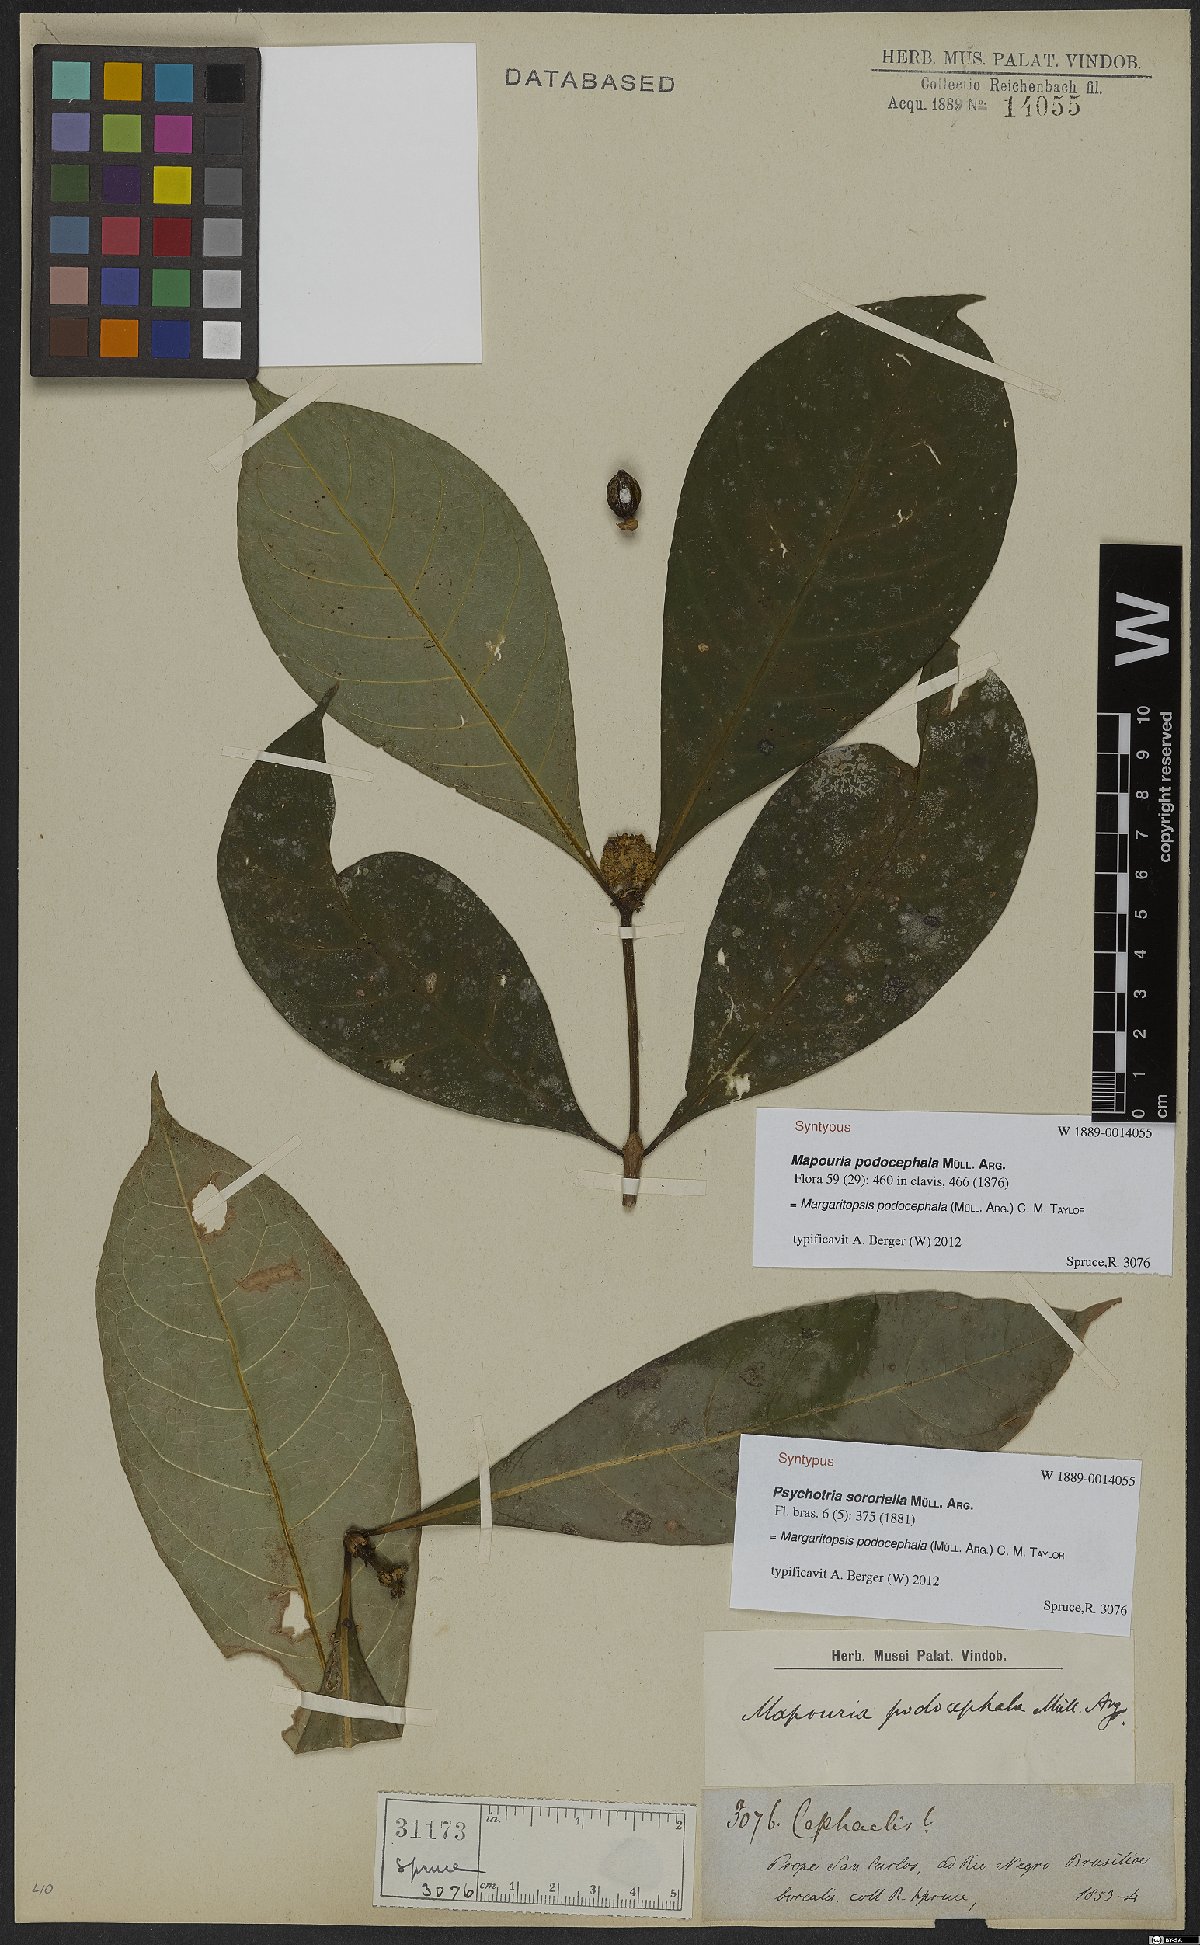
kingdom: Plantae
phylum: Tracheophyta
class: Magnoliopsida
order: Gentianales
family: Rubiaceae
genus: Eumachia
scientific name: Eumachia podocephala
